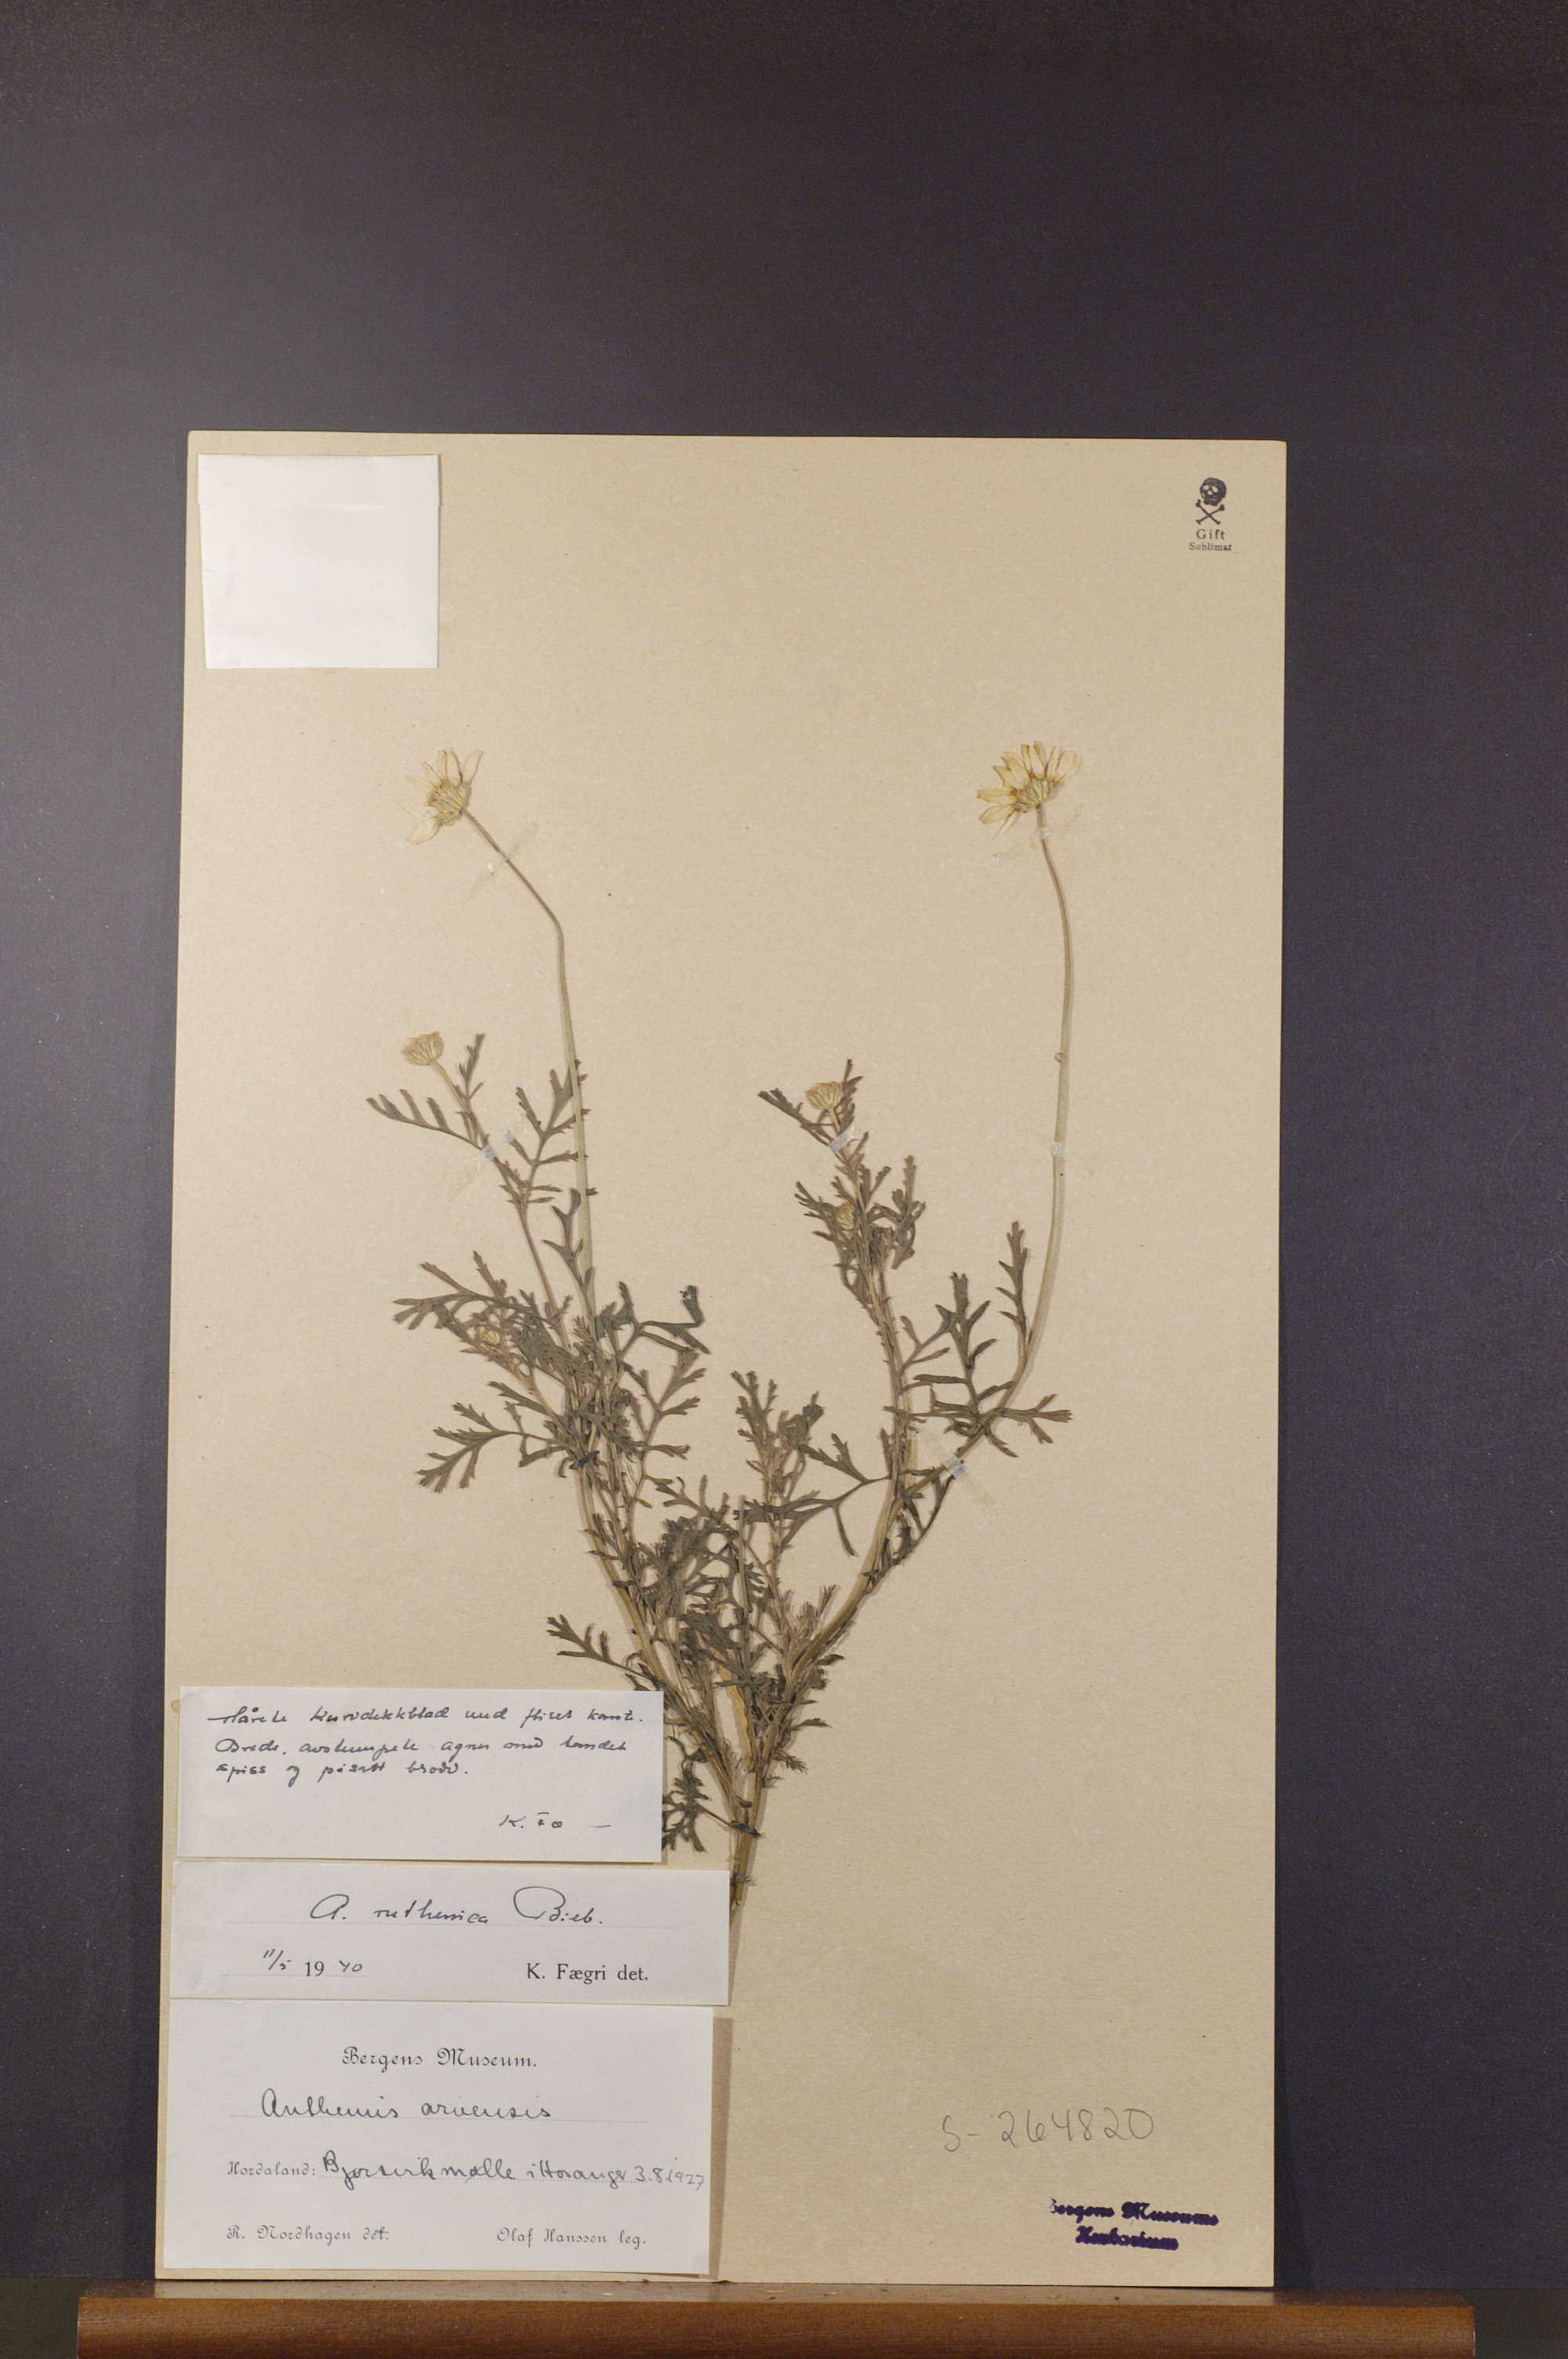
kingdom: Plantae
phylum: Tracheophyta
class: Magnoliopsida
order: Asterales
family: Asteraceae
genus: Anthemis
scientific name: Anthemis ruthenica
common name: Eastern chamomile
